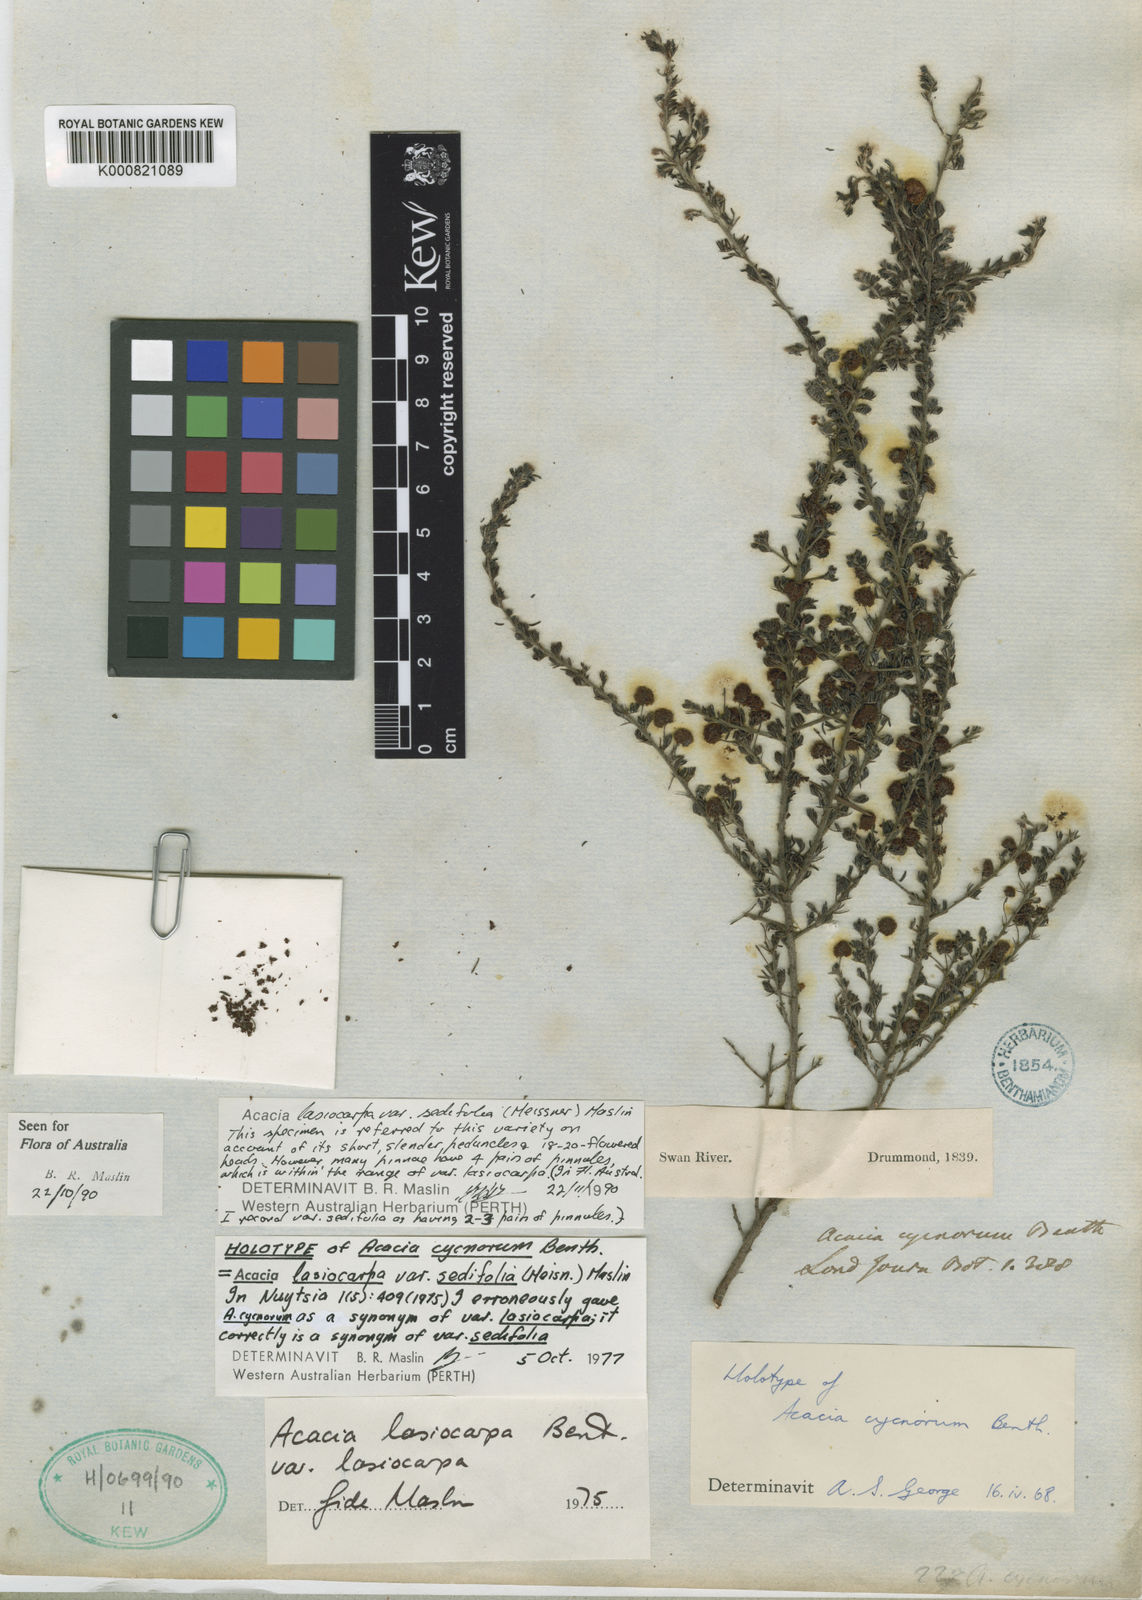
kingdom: Plantae
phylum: Tracheophyta
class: Magnoliopsida
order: Fabales
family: Fabaceae
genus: Acacia
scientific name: Acacia lasiocarpa
